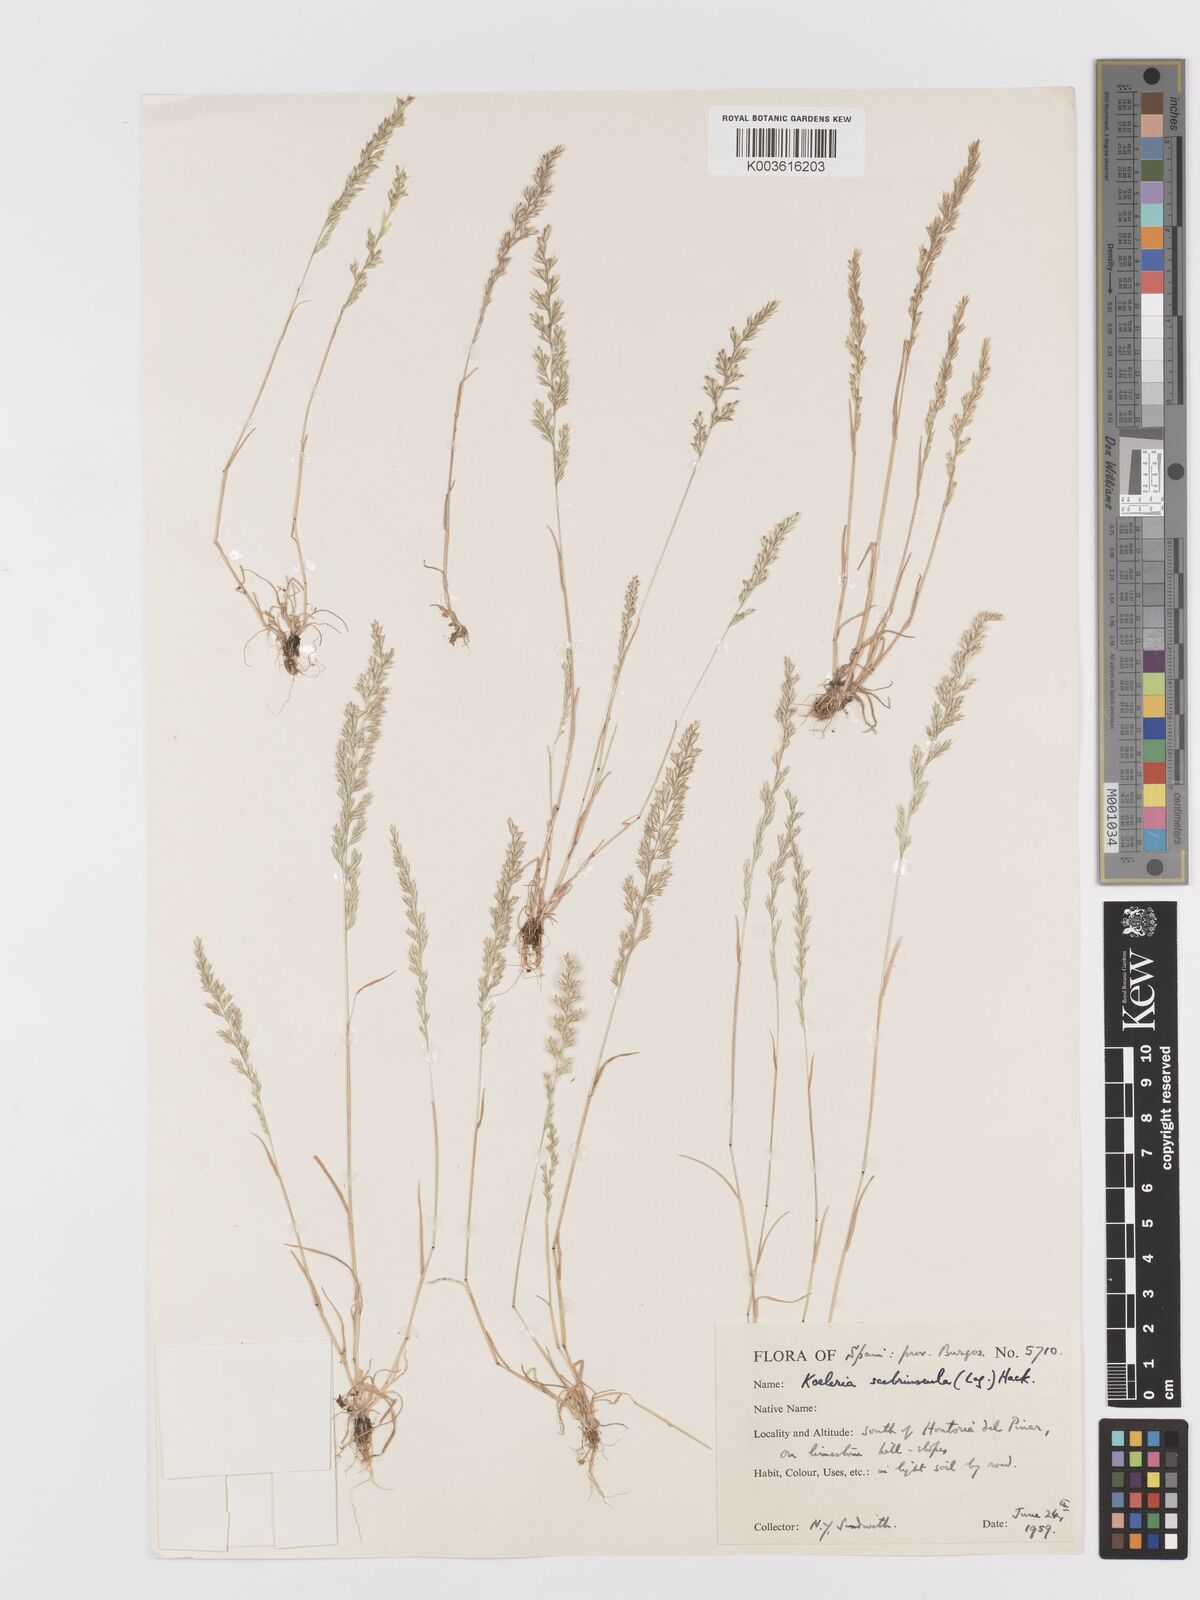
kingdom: Plantae
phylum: Tracheophyta
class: Liliopsida
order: Poales
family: Poaceae
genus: Trisetaria
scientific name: Trisetaria scabriuscula
